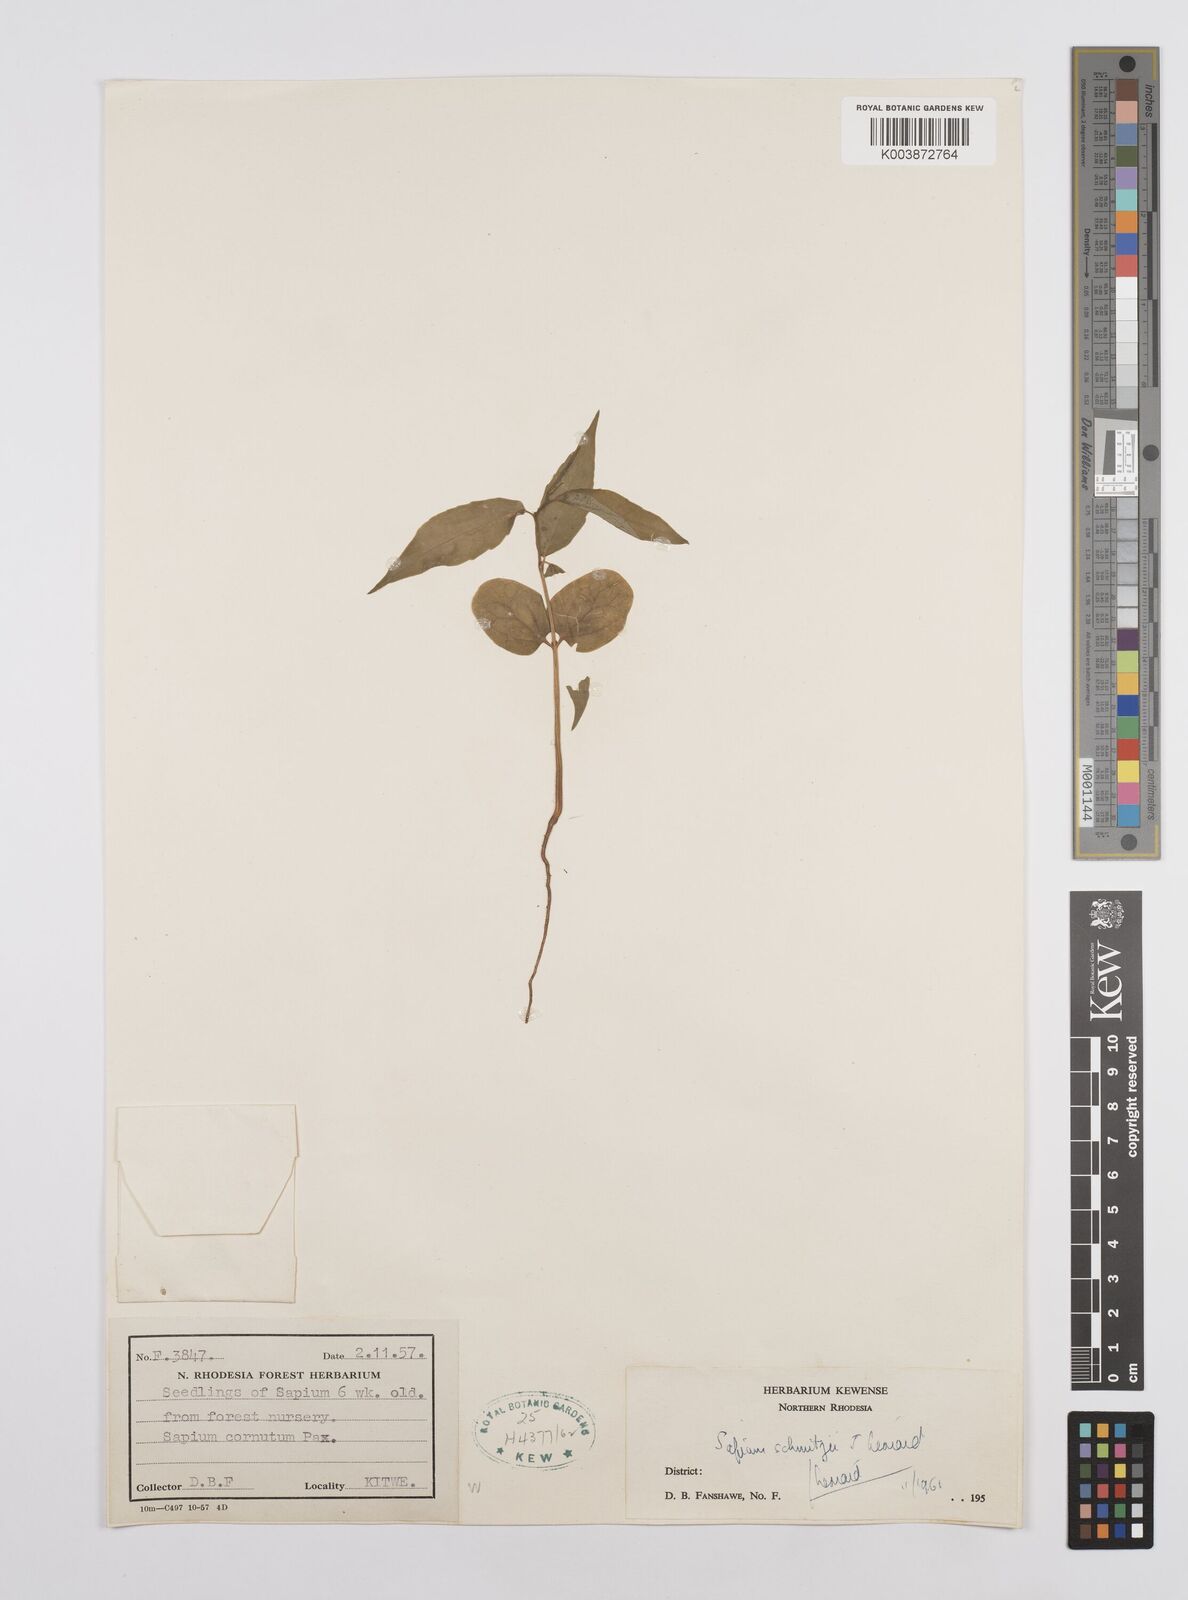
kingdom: Plantae
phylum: Tracheophyta
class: Magnoliopsida
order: Malpighiales
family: Euphorbiaceae
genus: Sclerocroton
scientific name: Sclerocroton schmitzii
